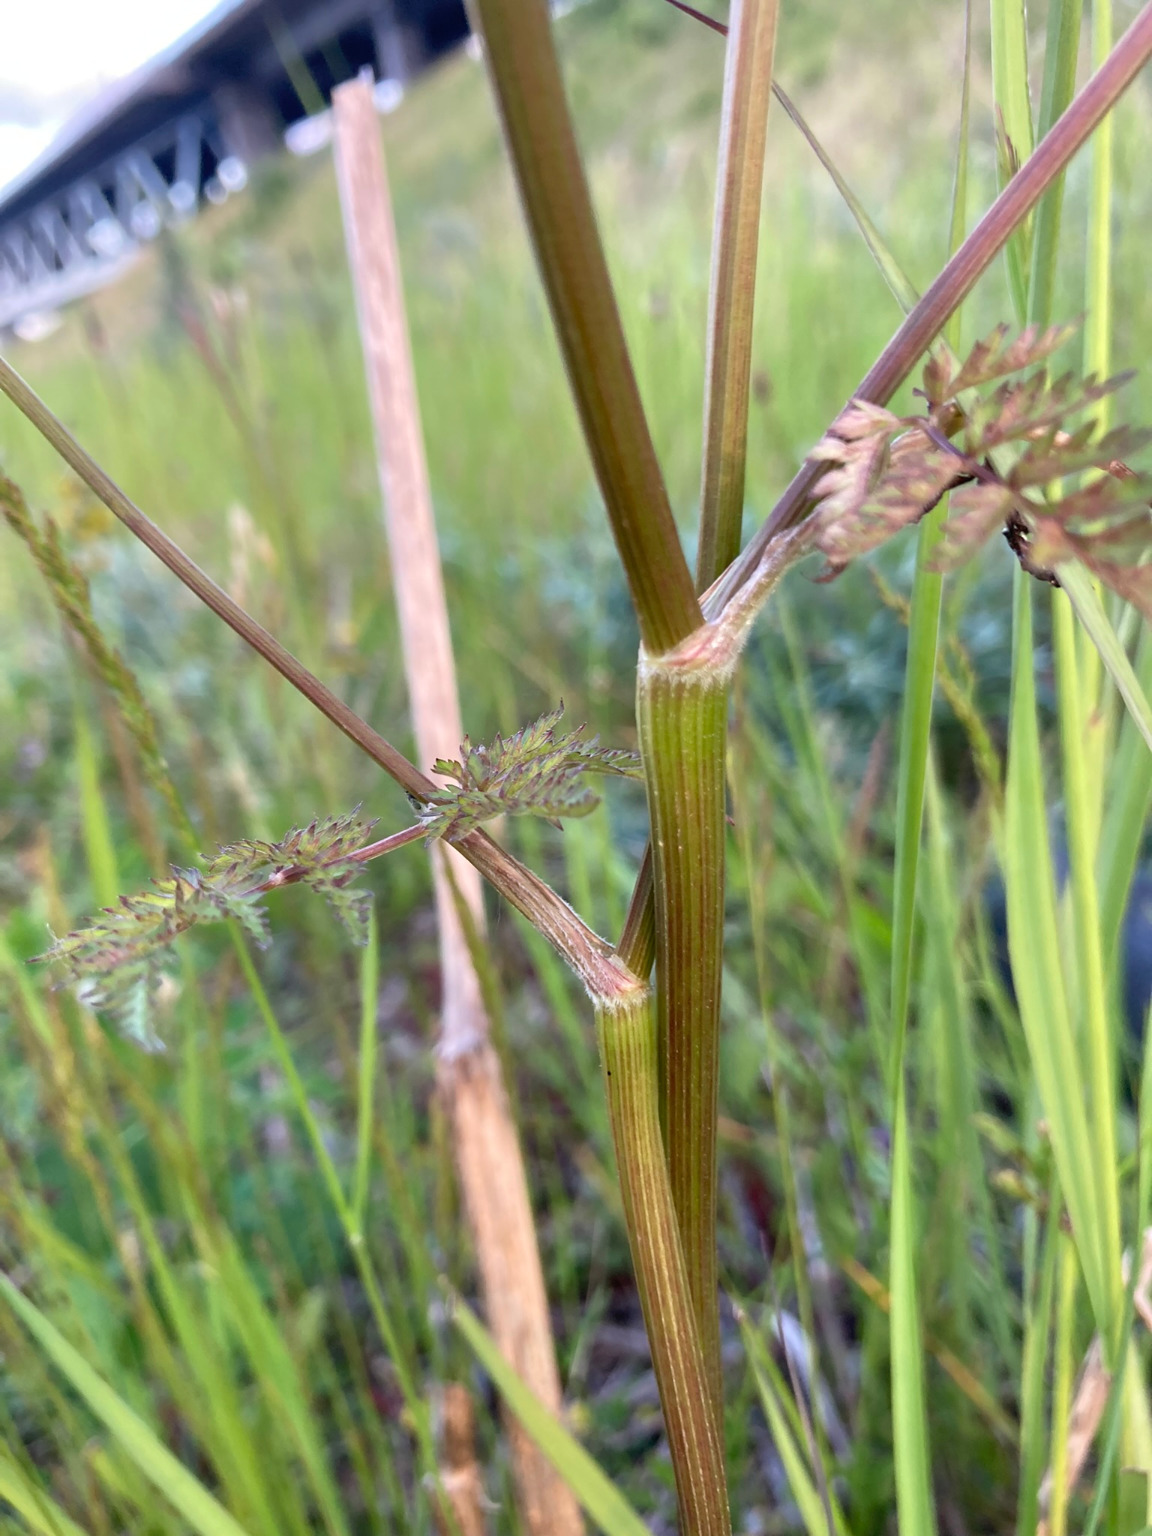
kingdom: Plantae
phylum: Tracheophyta
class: Magnoliopsida
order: Apiales
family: Apiaceae
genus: Anthriscus
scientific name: Anthriscus sylvestris
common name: Vild kørvel
